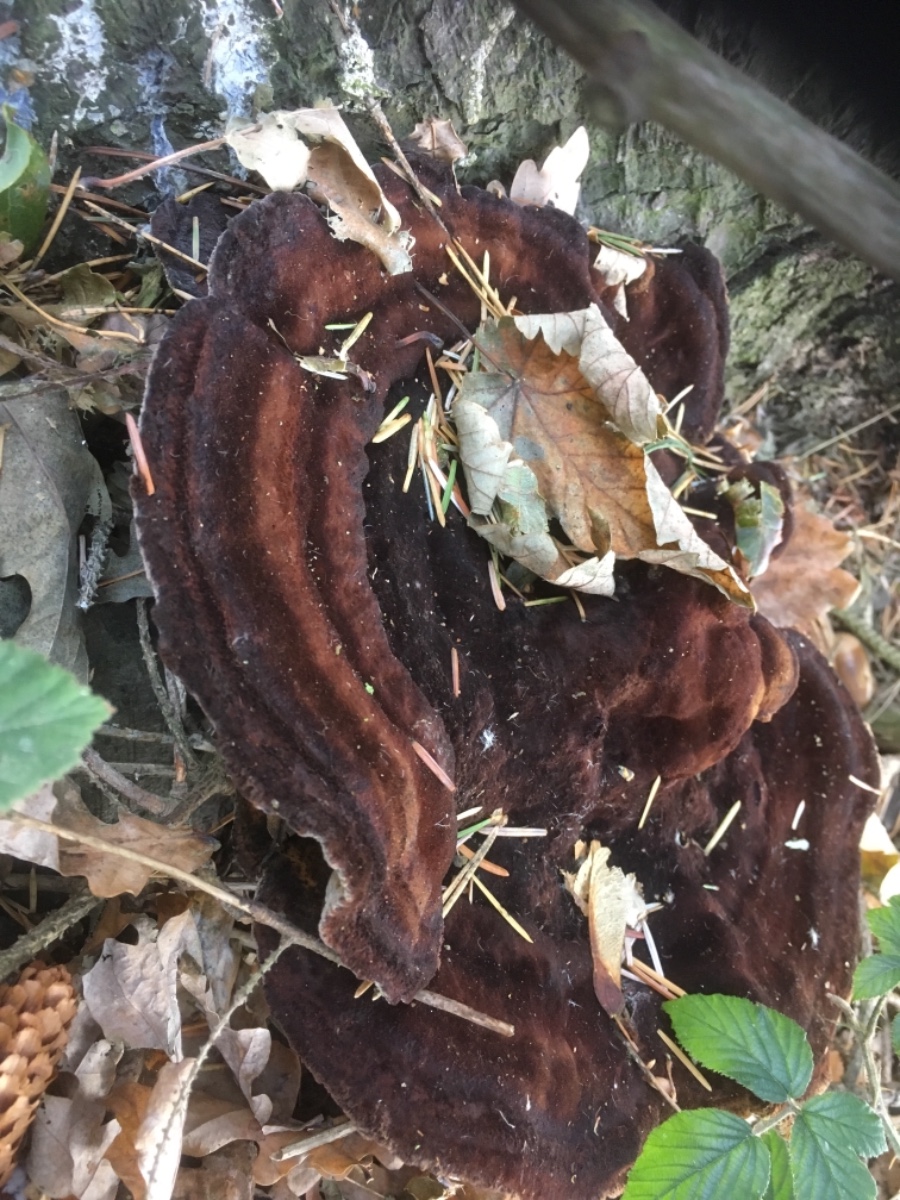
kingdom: Fungi
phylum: Basidiomycota
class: Agaricomycetes
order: Polyporales
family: Ischnodermataceae
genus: Ischnoderma
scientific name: Ischnoderma benzoinum
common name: gran-tjæreporesvamp
